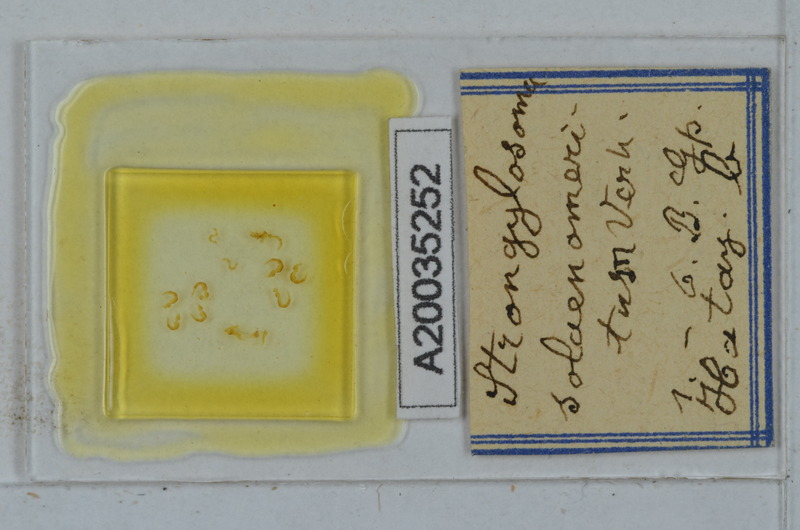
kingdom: Animalia
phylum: Arthropoda
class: Diplopoda
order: Polydesmida
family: Paradoxosomatidae
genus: Tetrarthrosoma
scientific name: Tetrarthrosoma solaenomeritum
